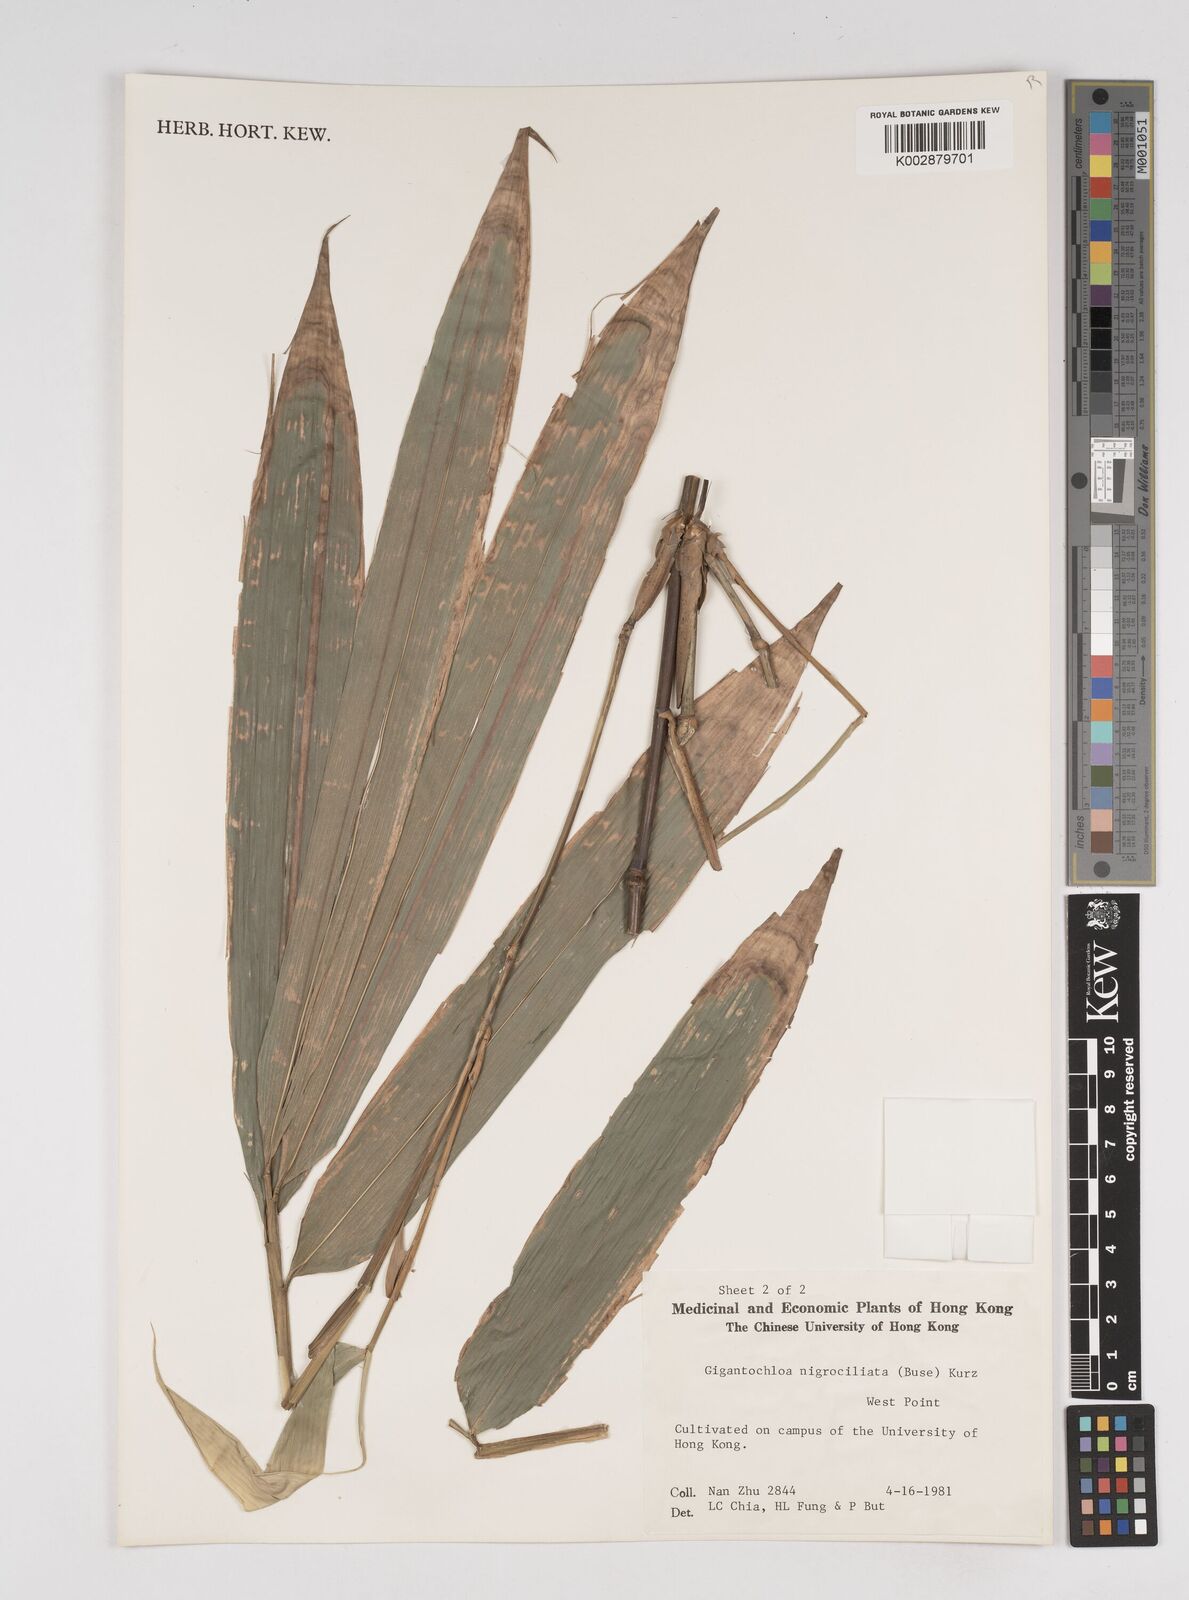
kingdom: Plantae
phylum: Tracheophyta
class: Liliopsida
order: Poales
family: Poaceae
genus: Gigantochloa
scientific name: Gigantochloa nigrociliata
